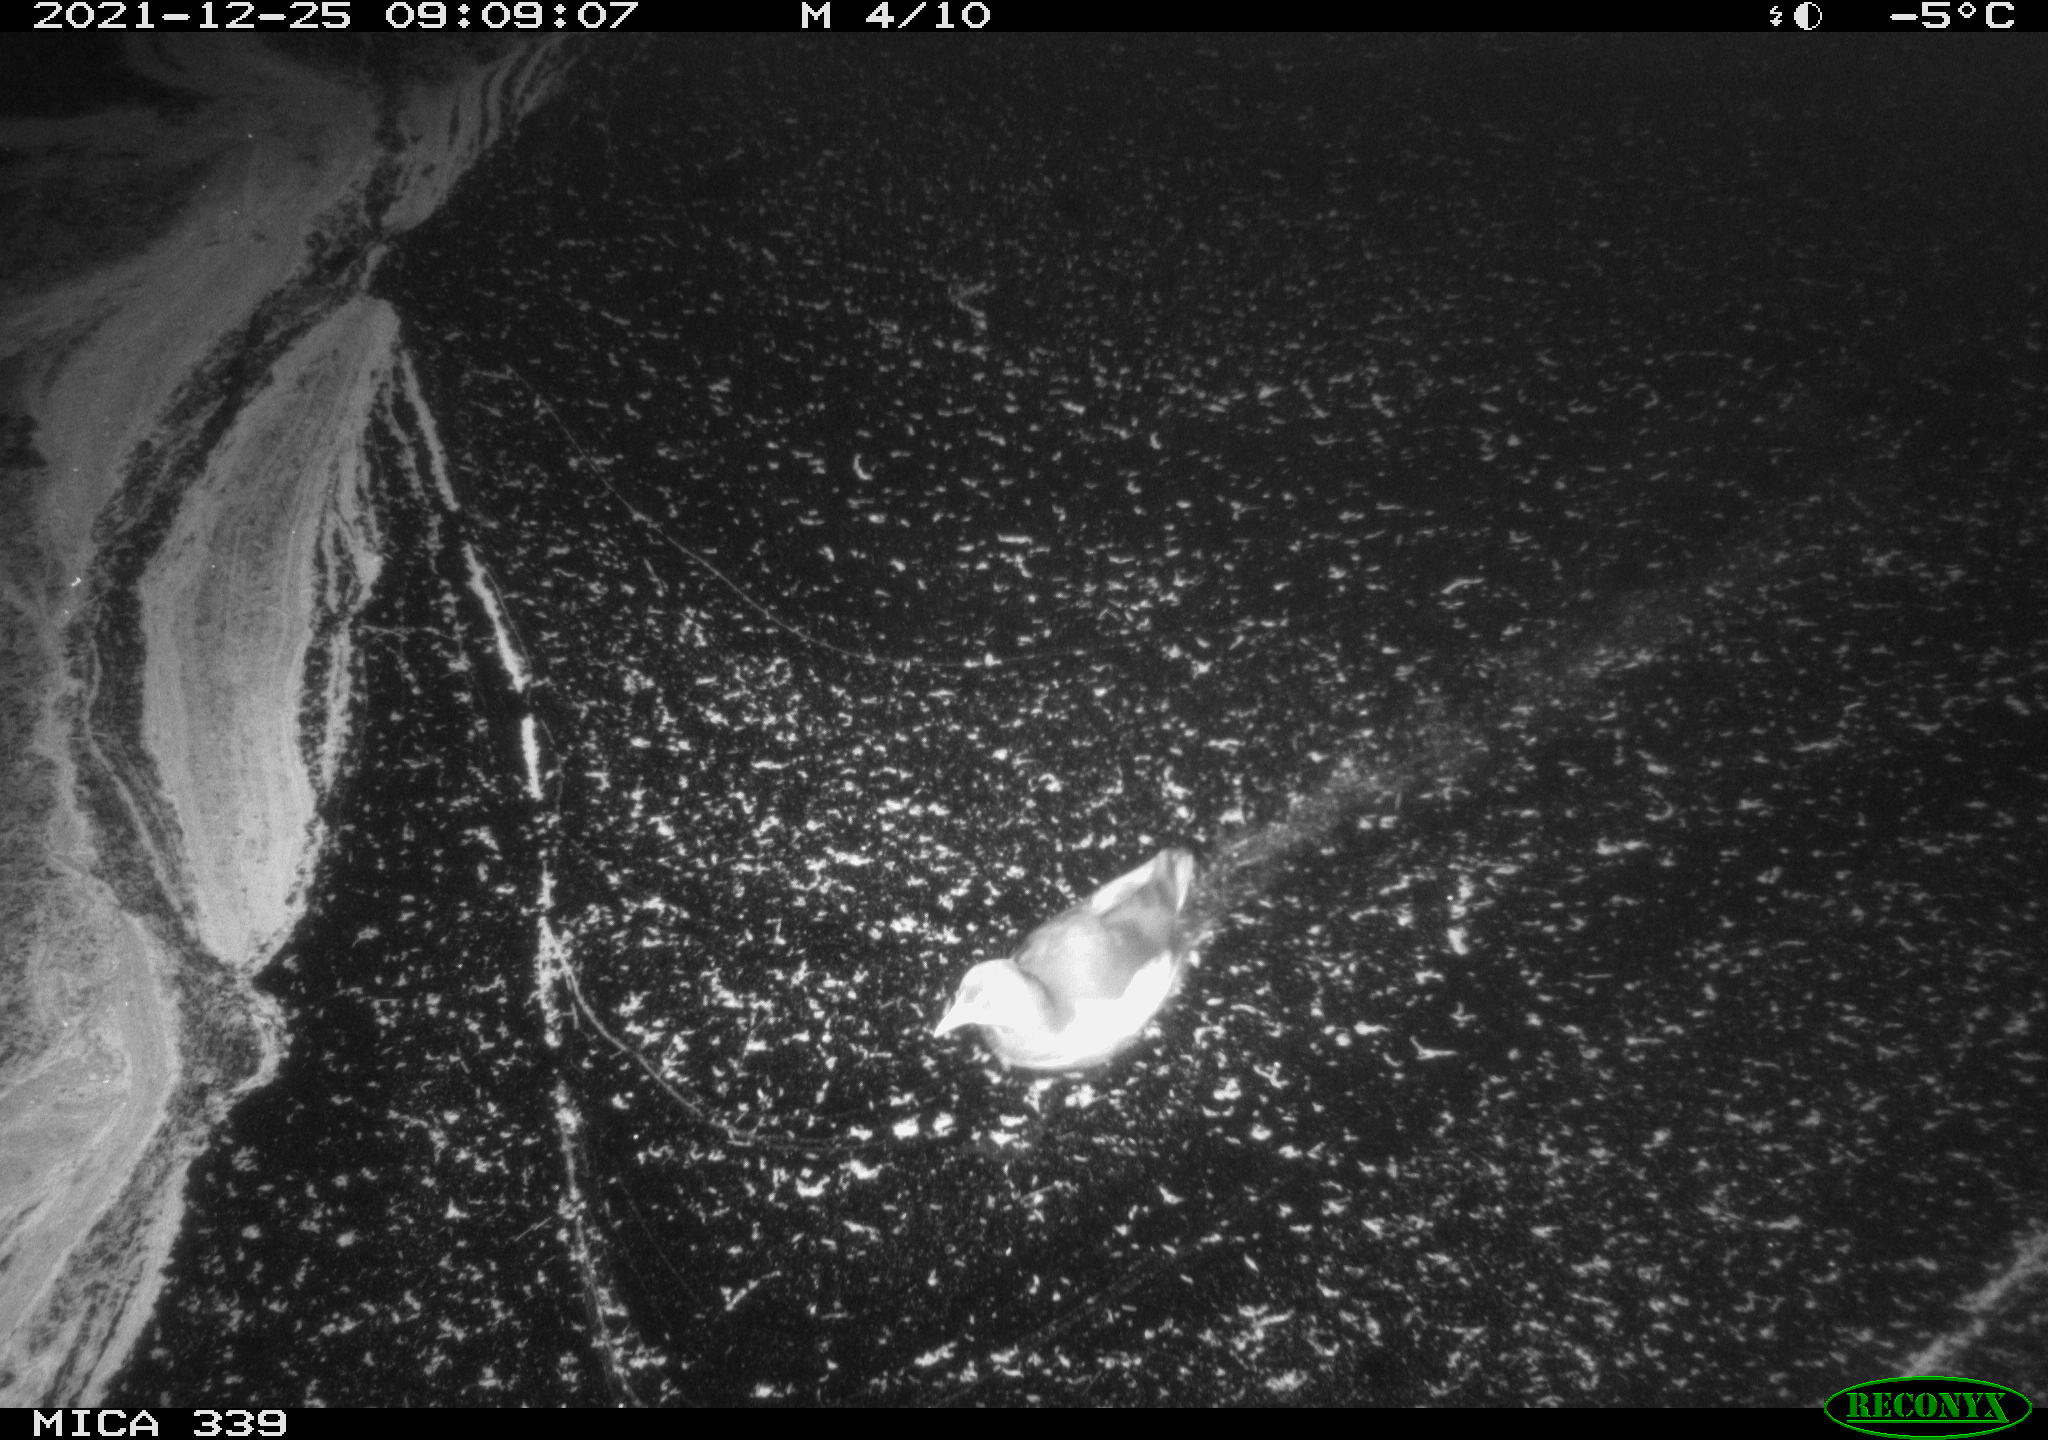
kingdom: Animalia
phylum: Chordata
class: Aves
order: Gruiformes
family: Rallidae
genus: Gallinula
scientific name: Gallinula chloropus
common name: Common moorhen
